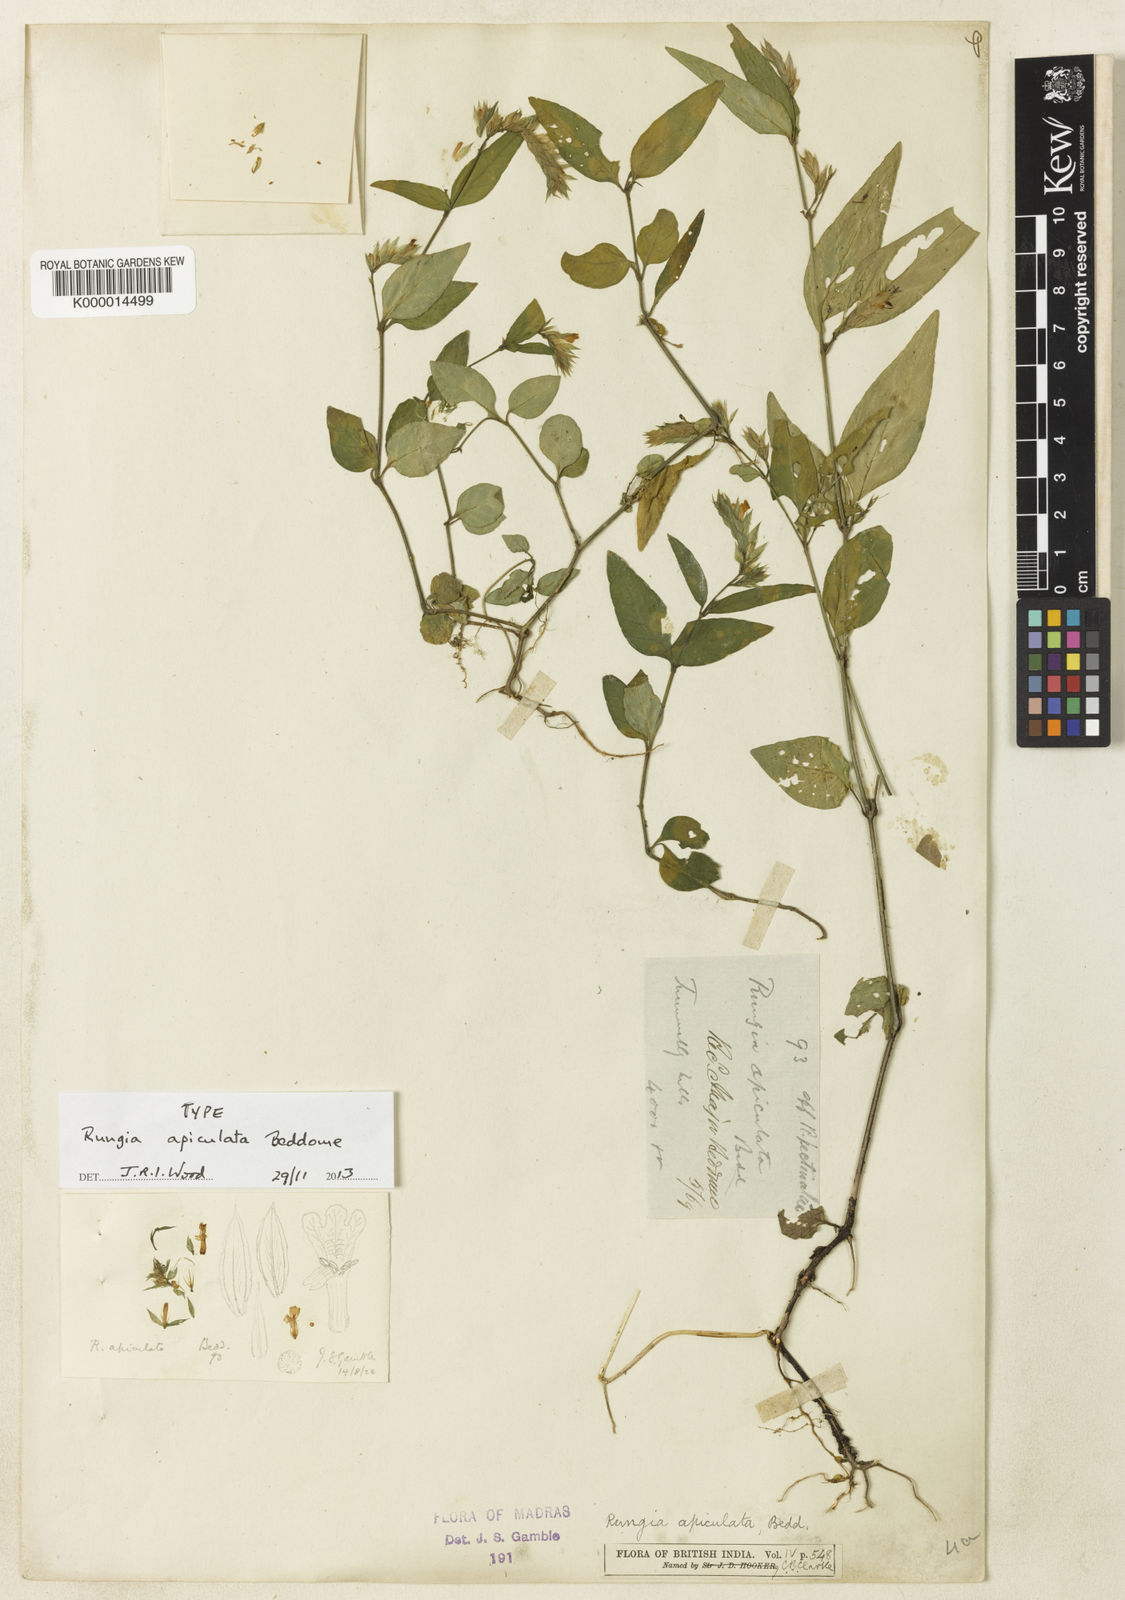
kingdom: Plantae
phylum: Tracheophyta
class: Magnoliopsida
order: Lamiales
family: Acanthaceae
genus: Rungia
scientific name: Rungia apiculata
